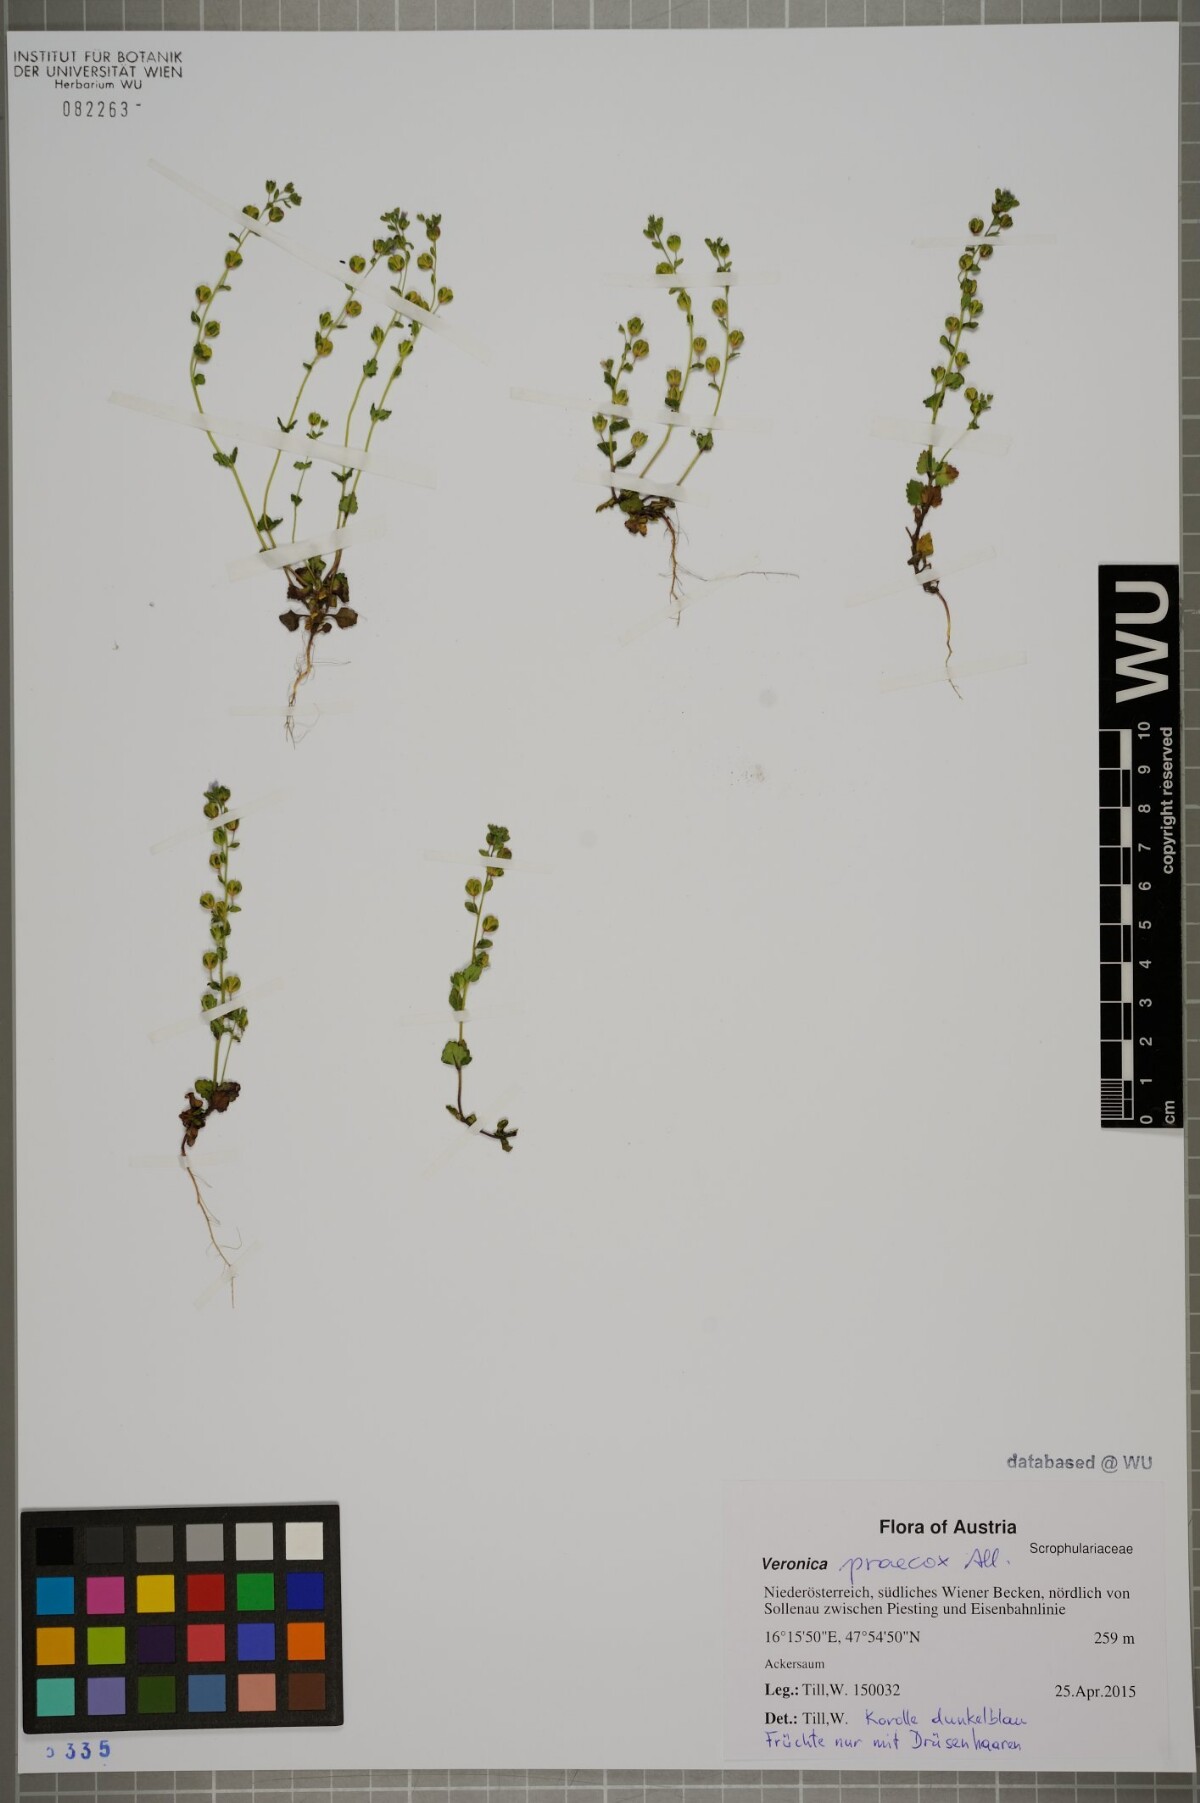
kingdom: Plantae
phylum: Tracheophyta
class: Magnoliopsida
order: Lamiales
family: Plantaginaceae
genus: Veronica
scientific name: Veronica praecox
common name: Breckland speedwell
